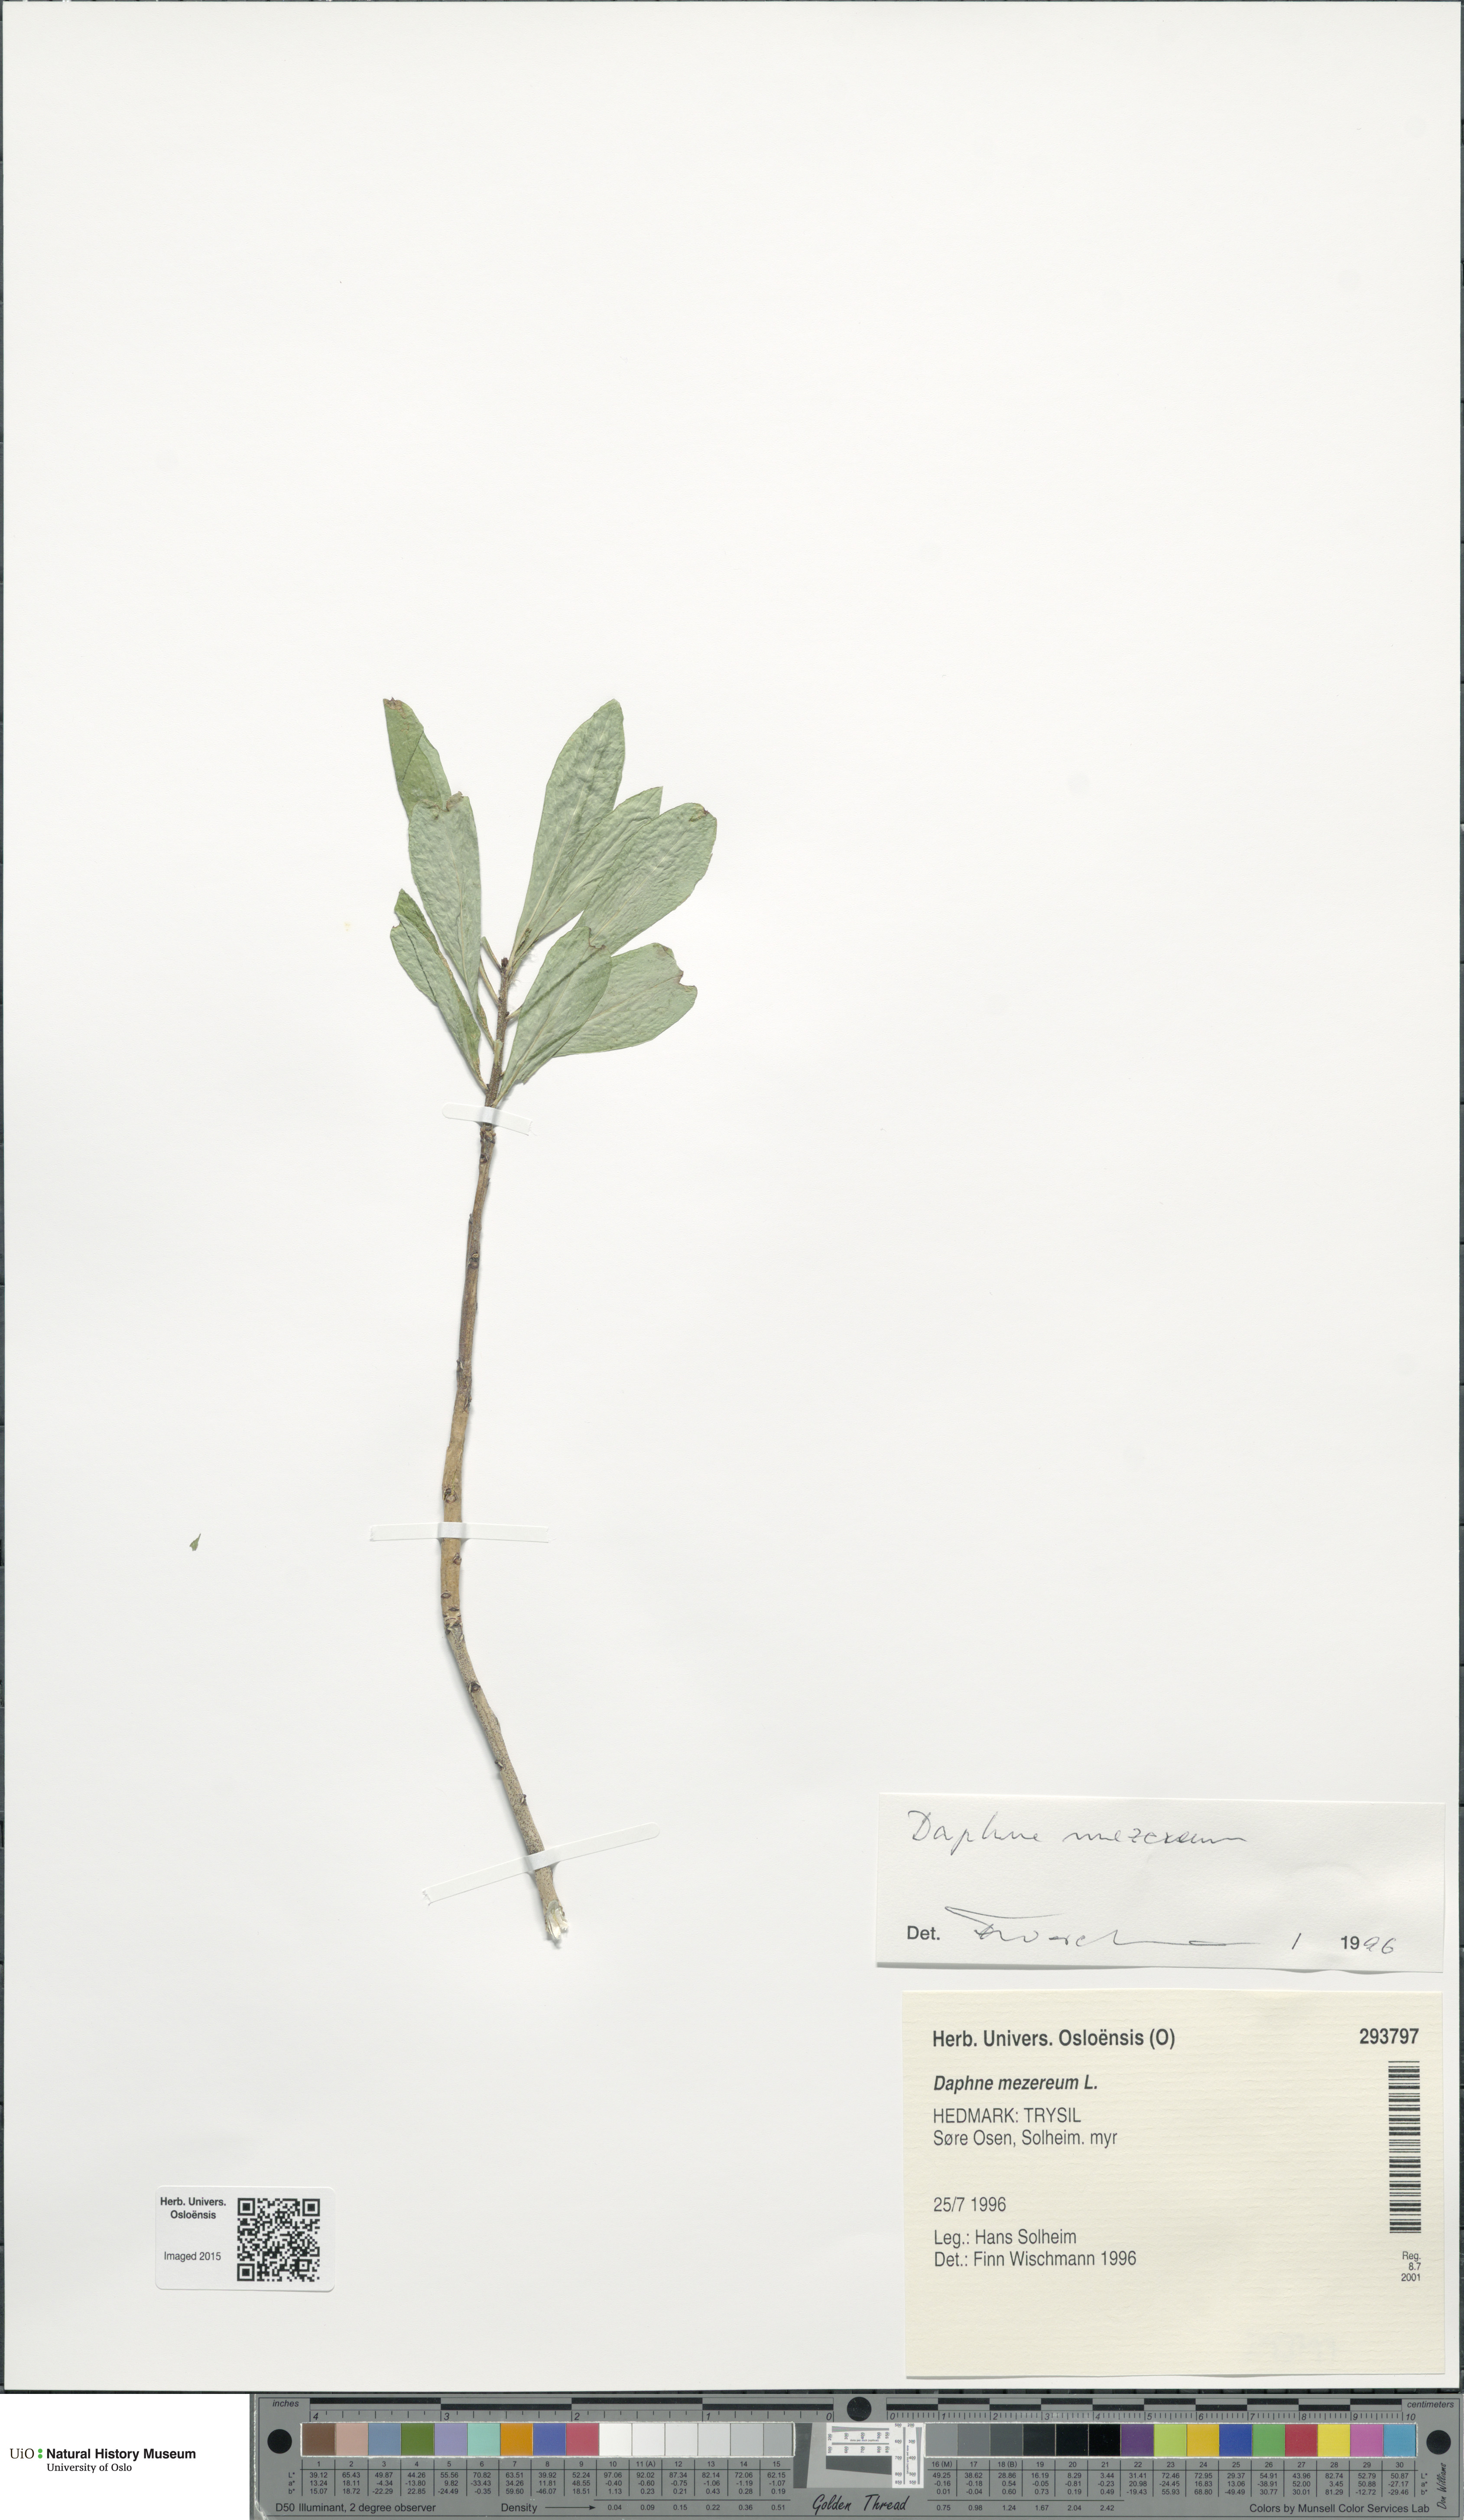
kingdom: Plantae
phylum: Tracheophyta
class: Magnoliopsida
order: Malvales
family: Thymelaeaceae
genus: Daphne
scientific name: Daphne mezereum
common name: Mezereon
